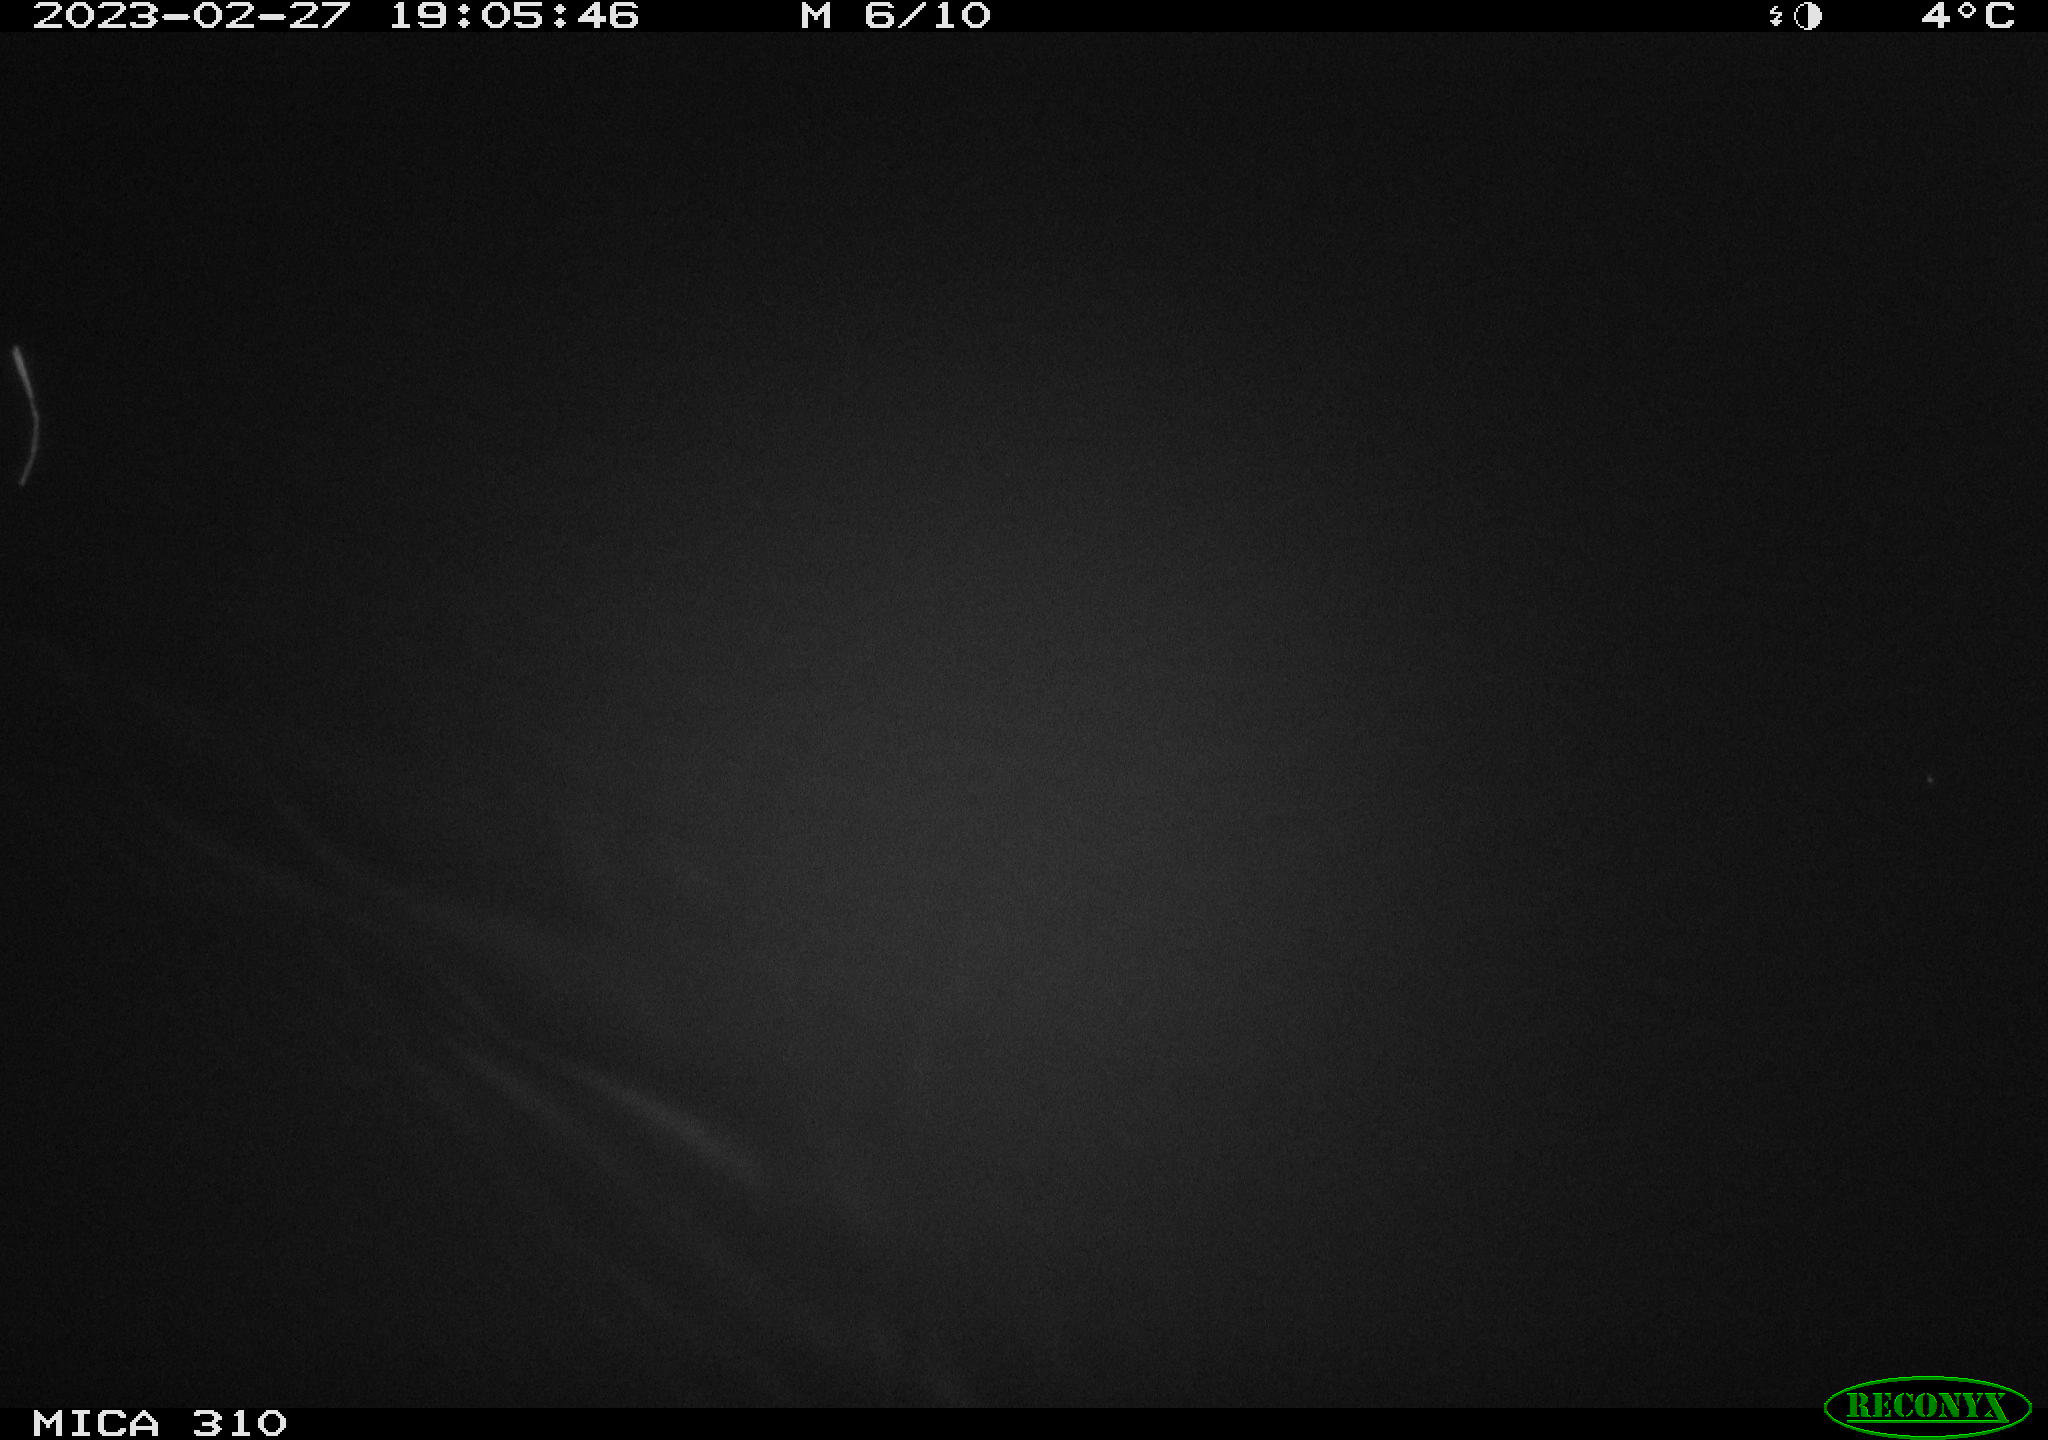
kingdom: Animalia
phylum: Chordata
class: Mammalia
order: Rodentia
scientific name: Rodentia
